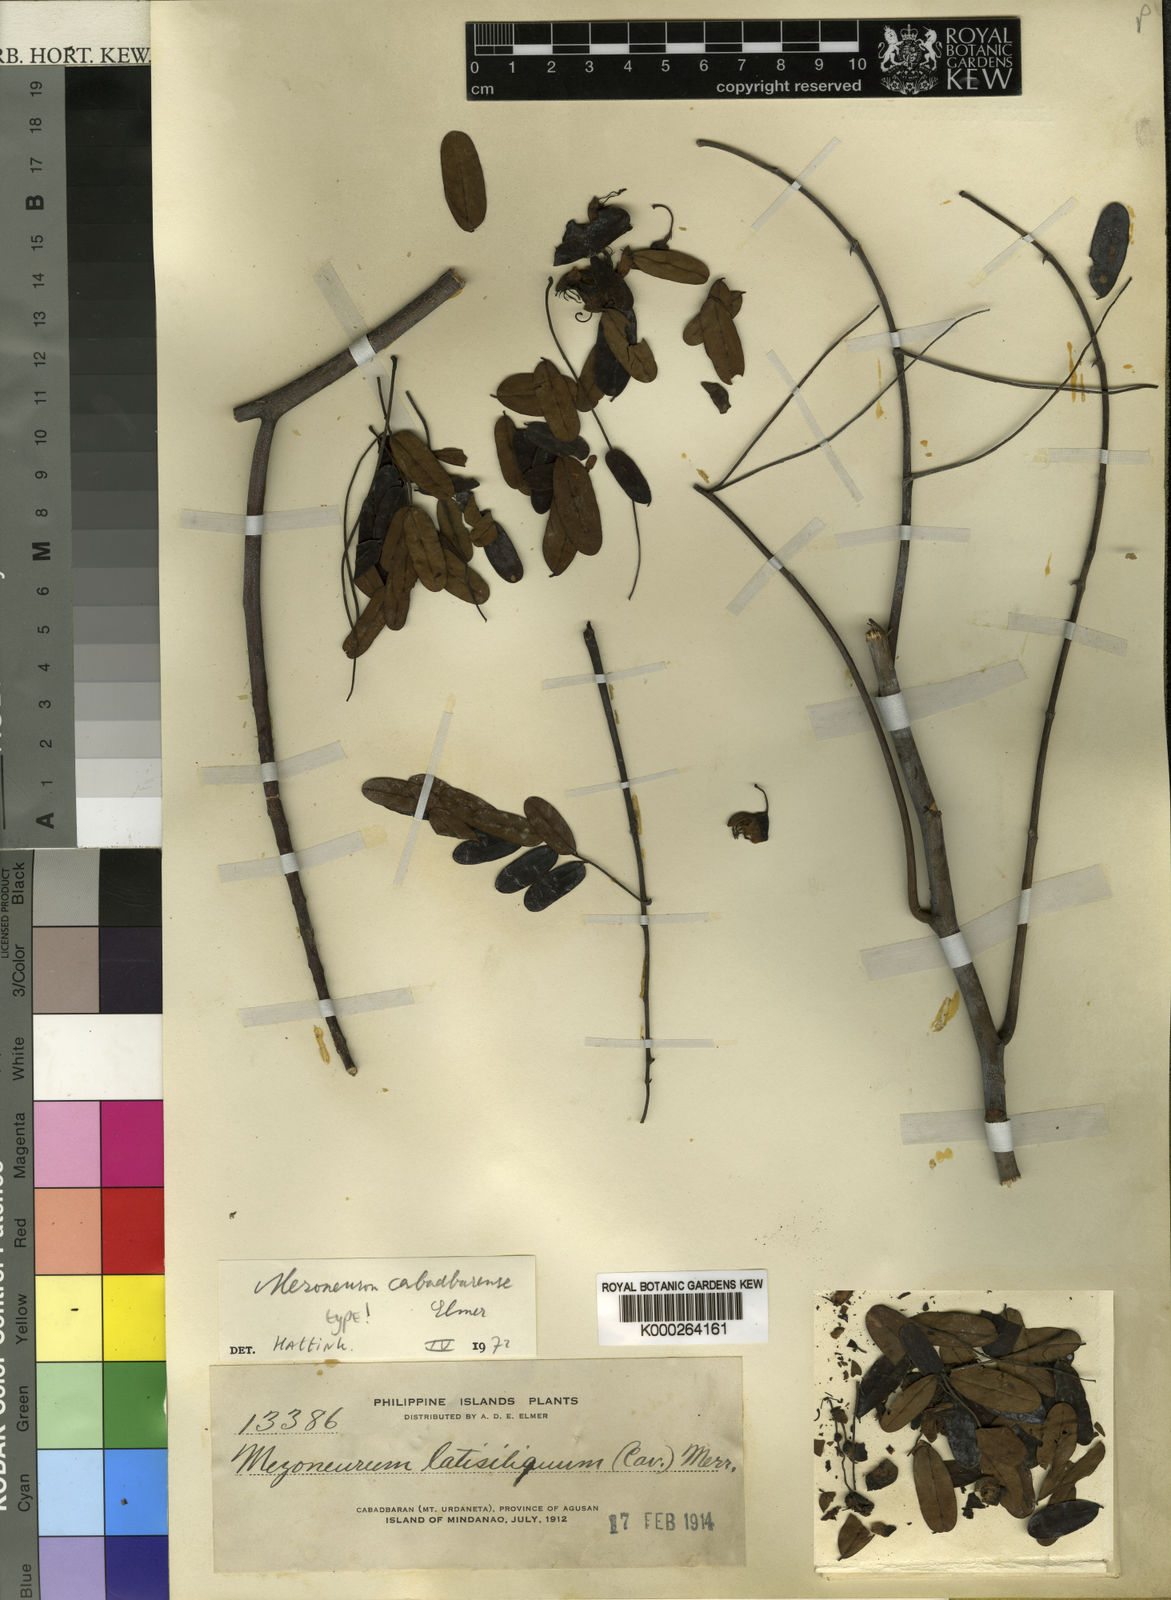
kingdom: Plantae
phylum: Tracheophyta
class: Magnoliopsida
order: Fabales
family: Fabaceae
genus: Caesalpinia
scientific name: Caesalpinia
